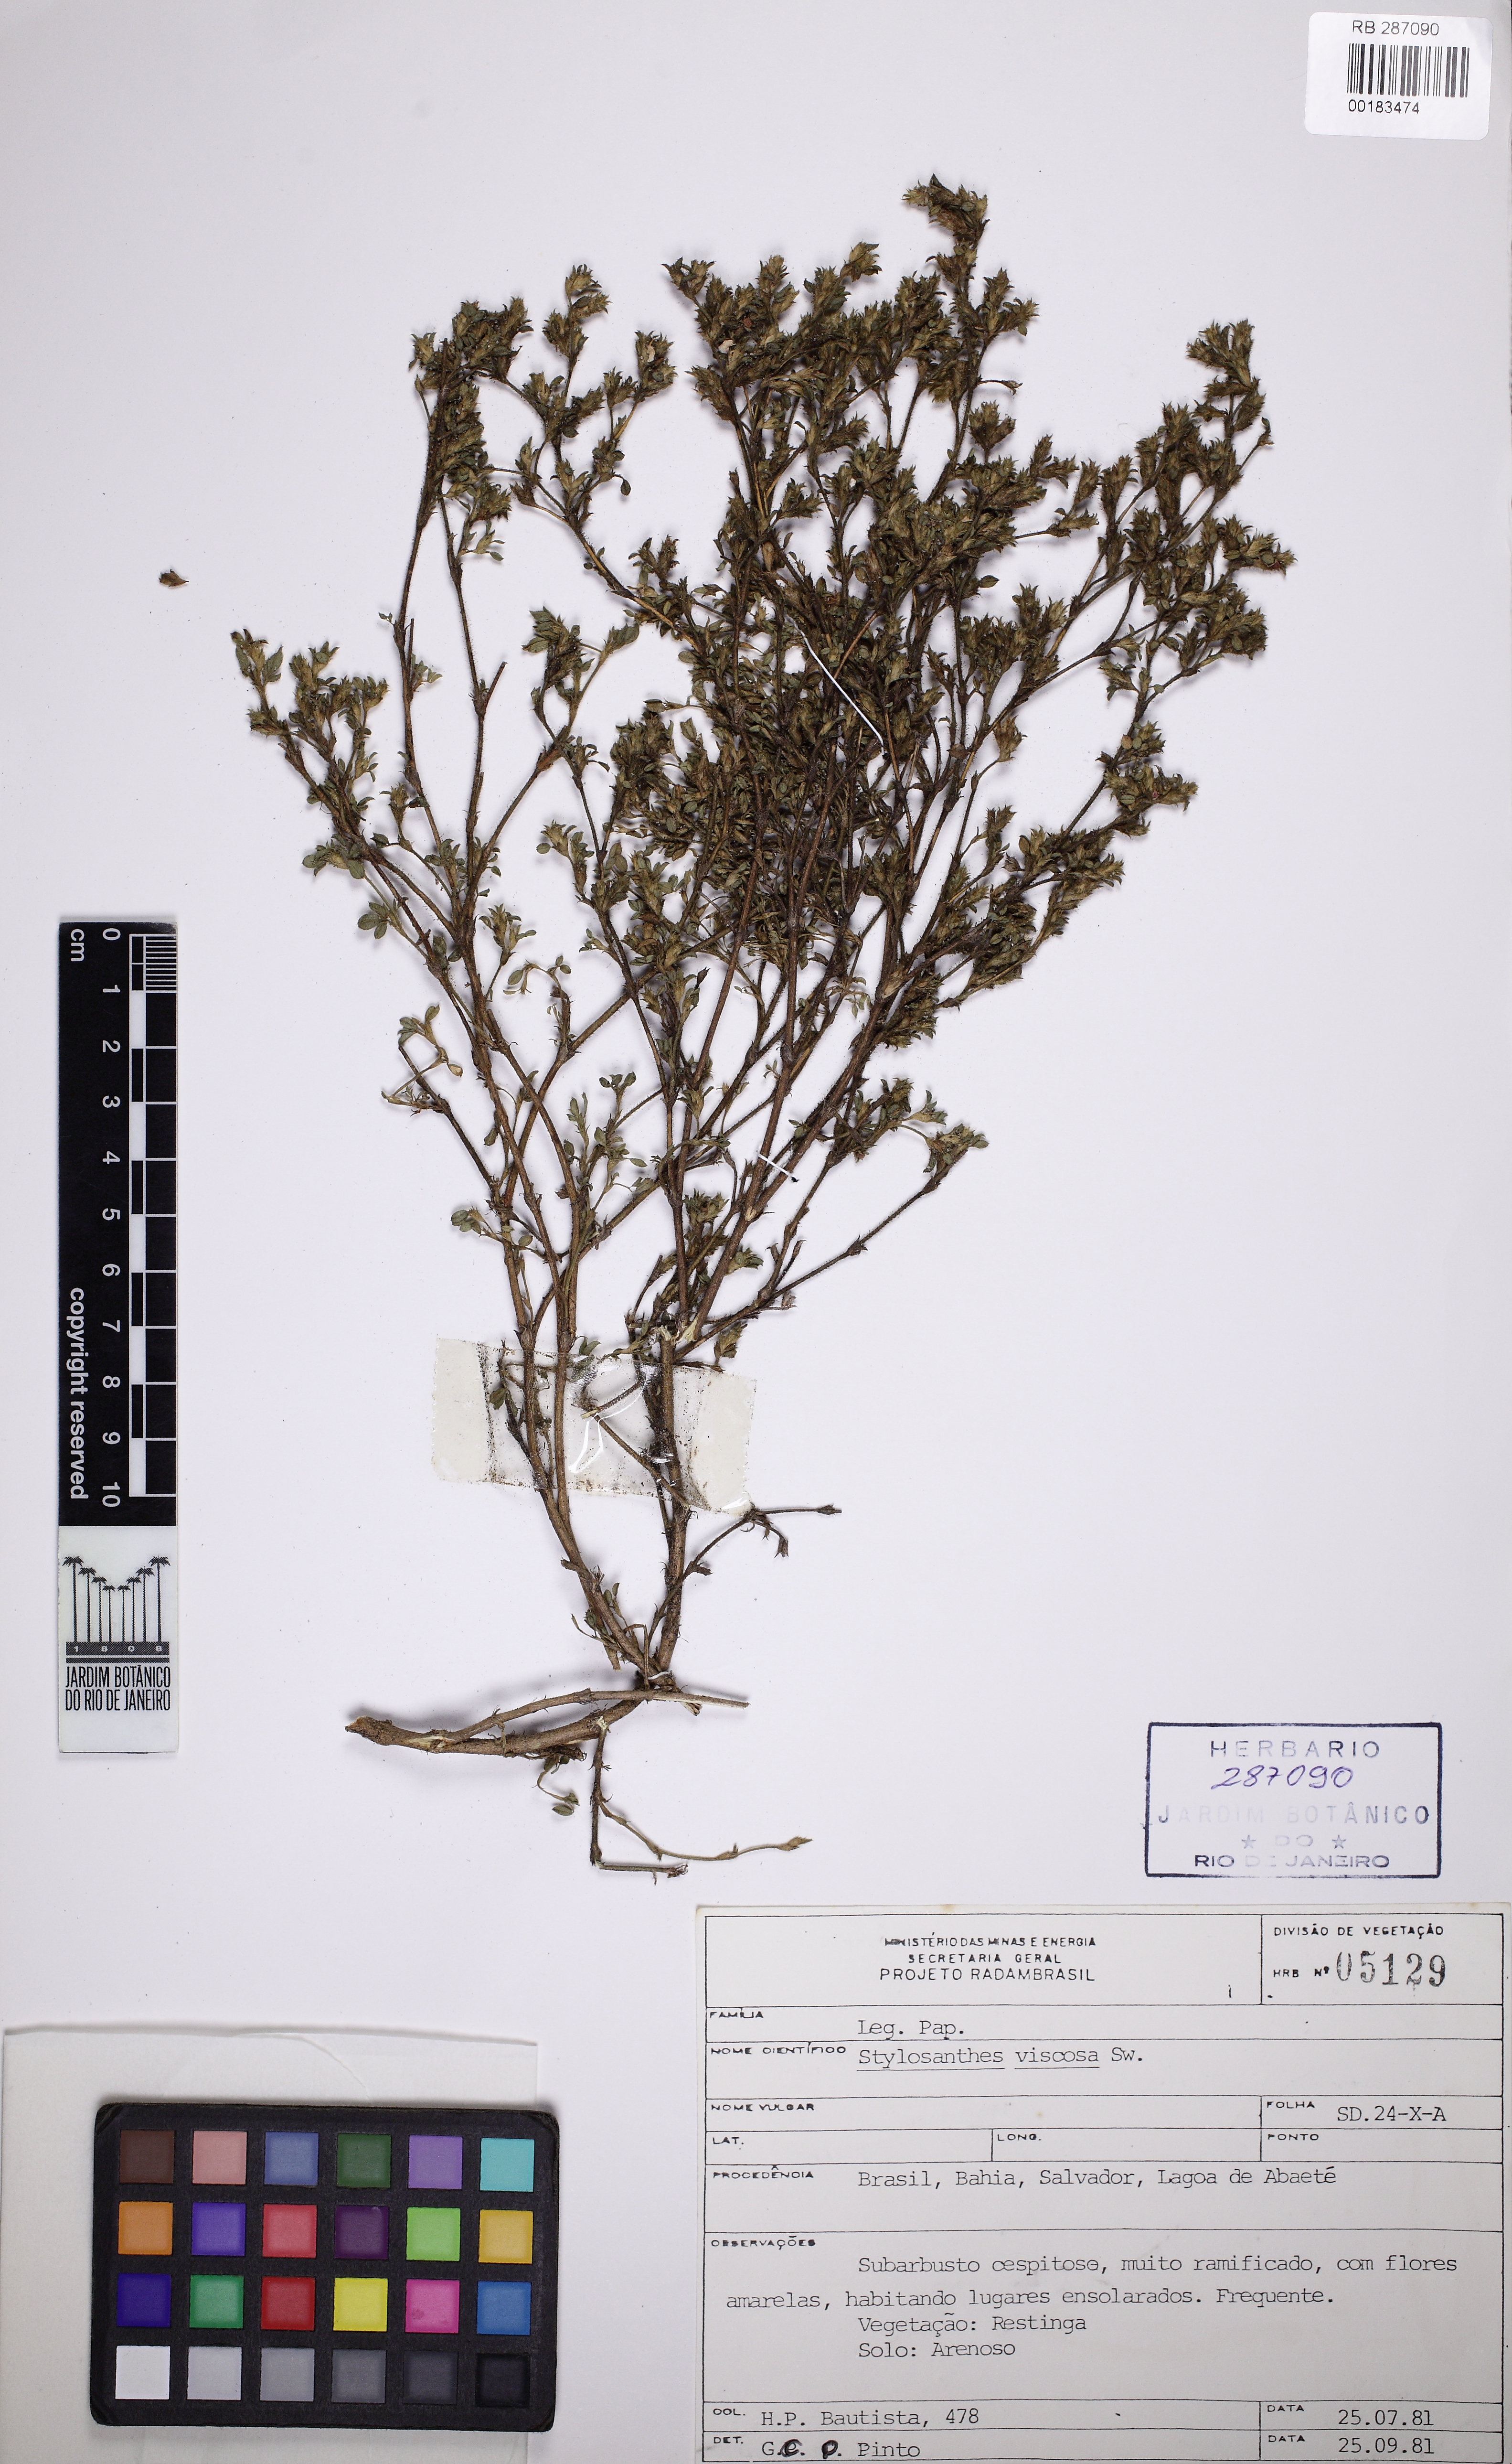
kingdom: Plantae
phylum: Tracheophyta
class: Magnoliopsida
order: Fabales
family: Fabaceae
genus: Stylosanthes
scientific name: Stylosanthes viscosa
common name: Viscid pencil-flower
